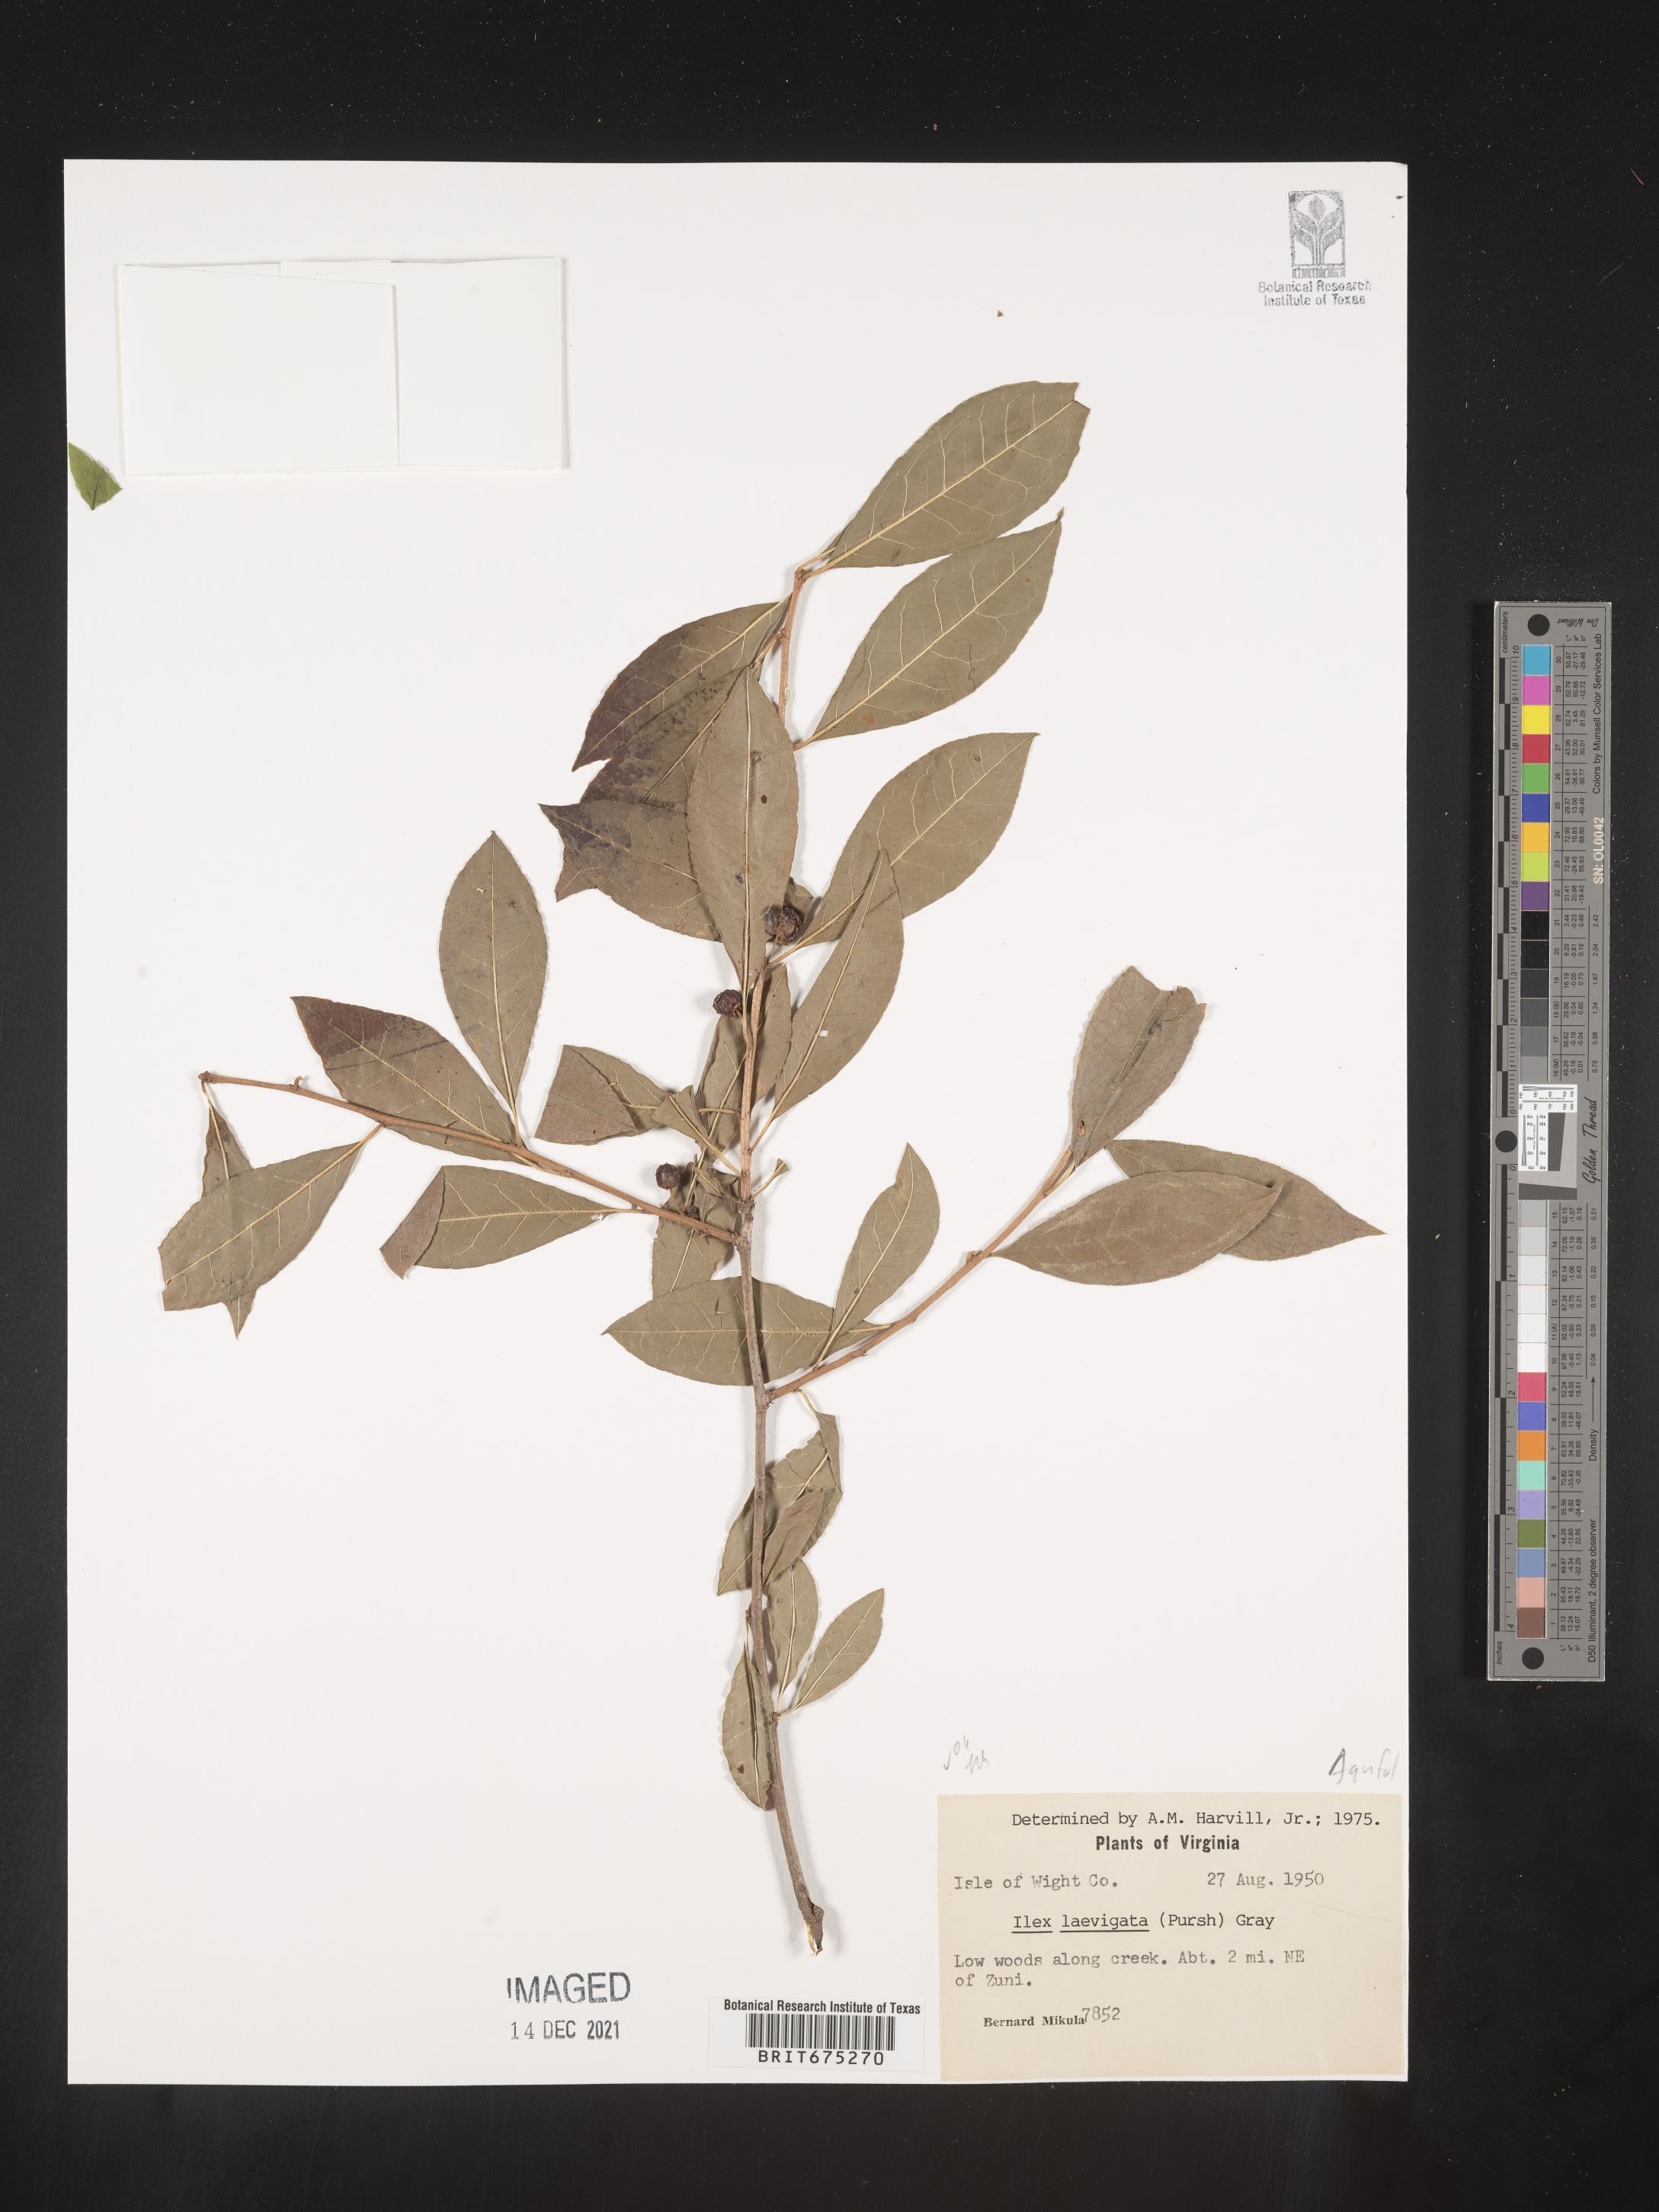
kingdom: Plantae
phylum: Tracheophyta
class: Magnoliopsida
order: Aquifoliales
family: Aquifoliaceae
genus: Ilex
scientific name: Ilex laevigata
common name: Smooth winterberry
